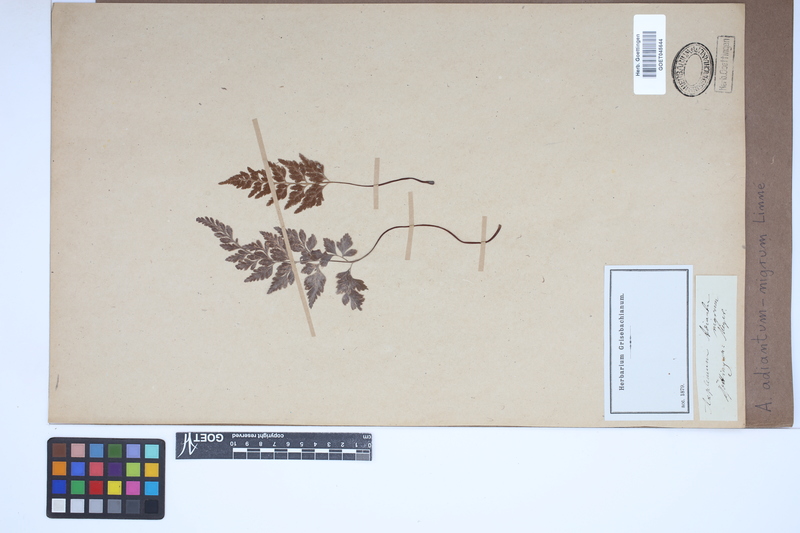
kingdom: Plantae
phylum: Tracheophyta
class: Polypodiopsida
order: Polypodiales
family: Aspleniaceae
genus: Asplenium
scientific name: Asplenium adiantum-nigrum
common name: Black spleenwort
